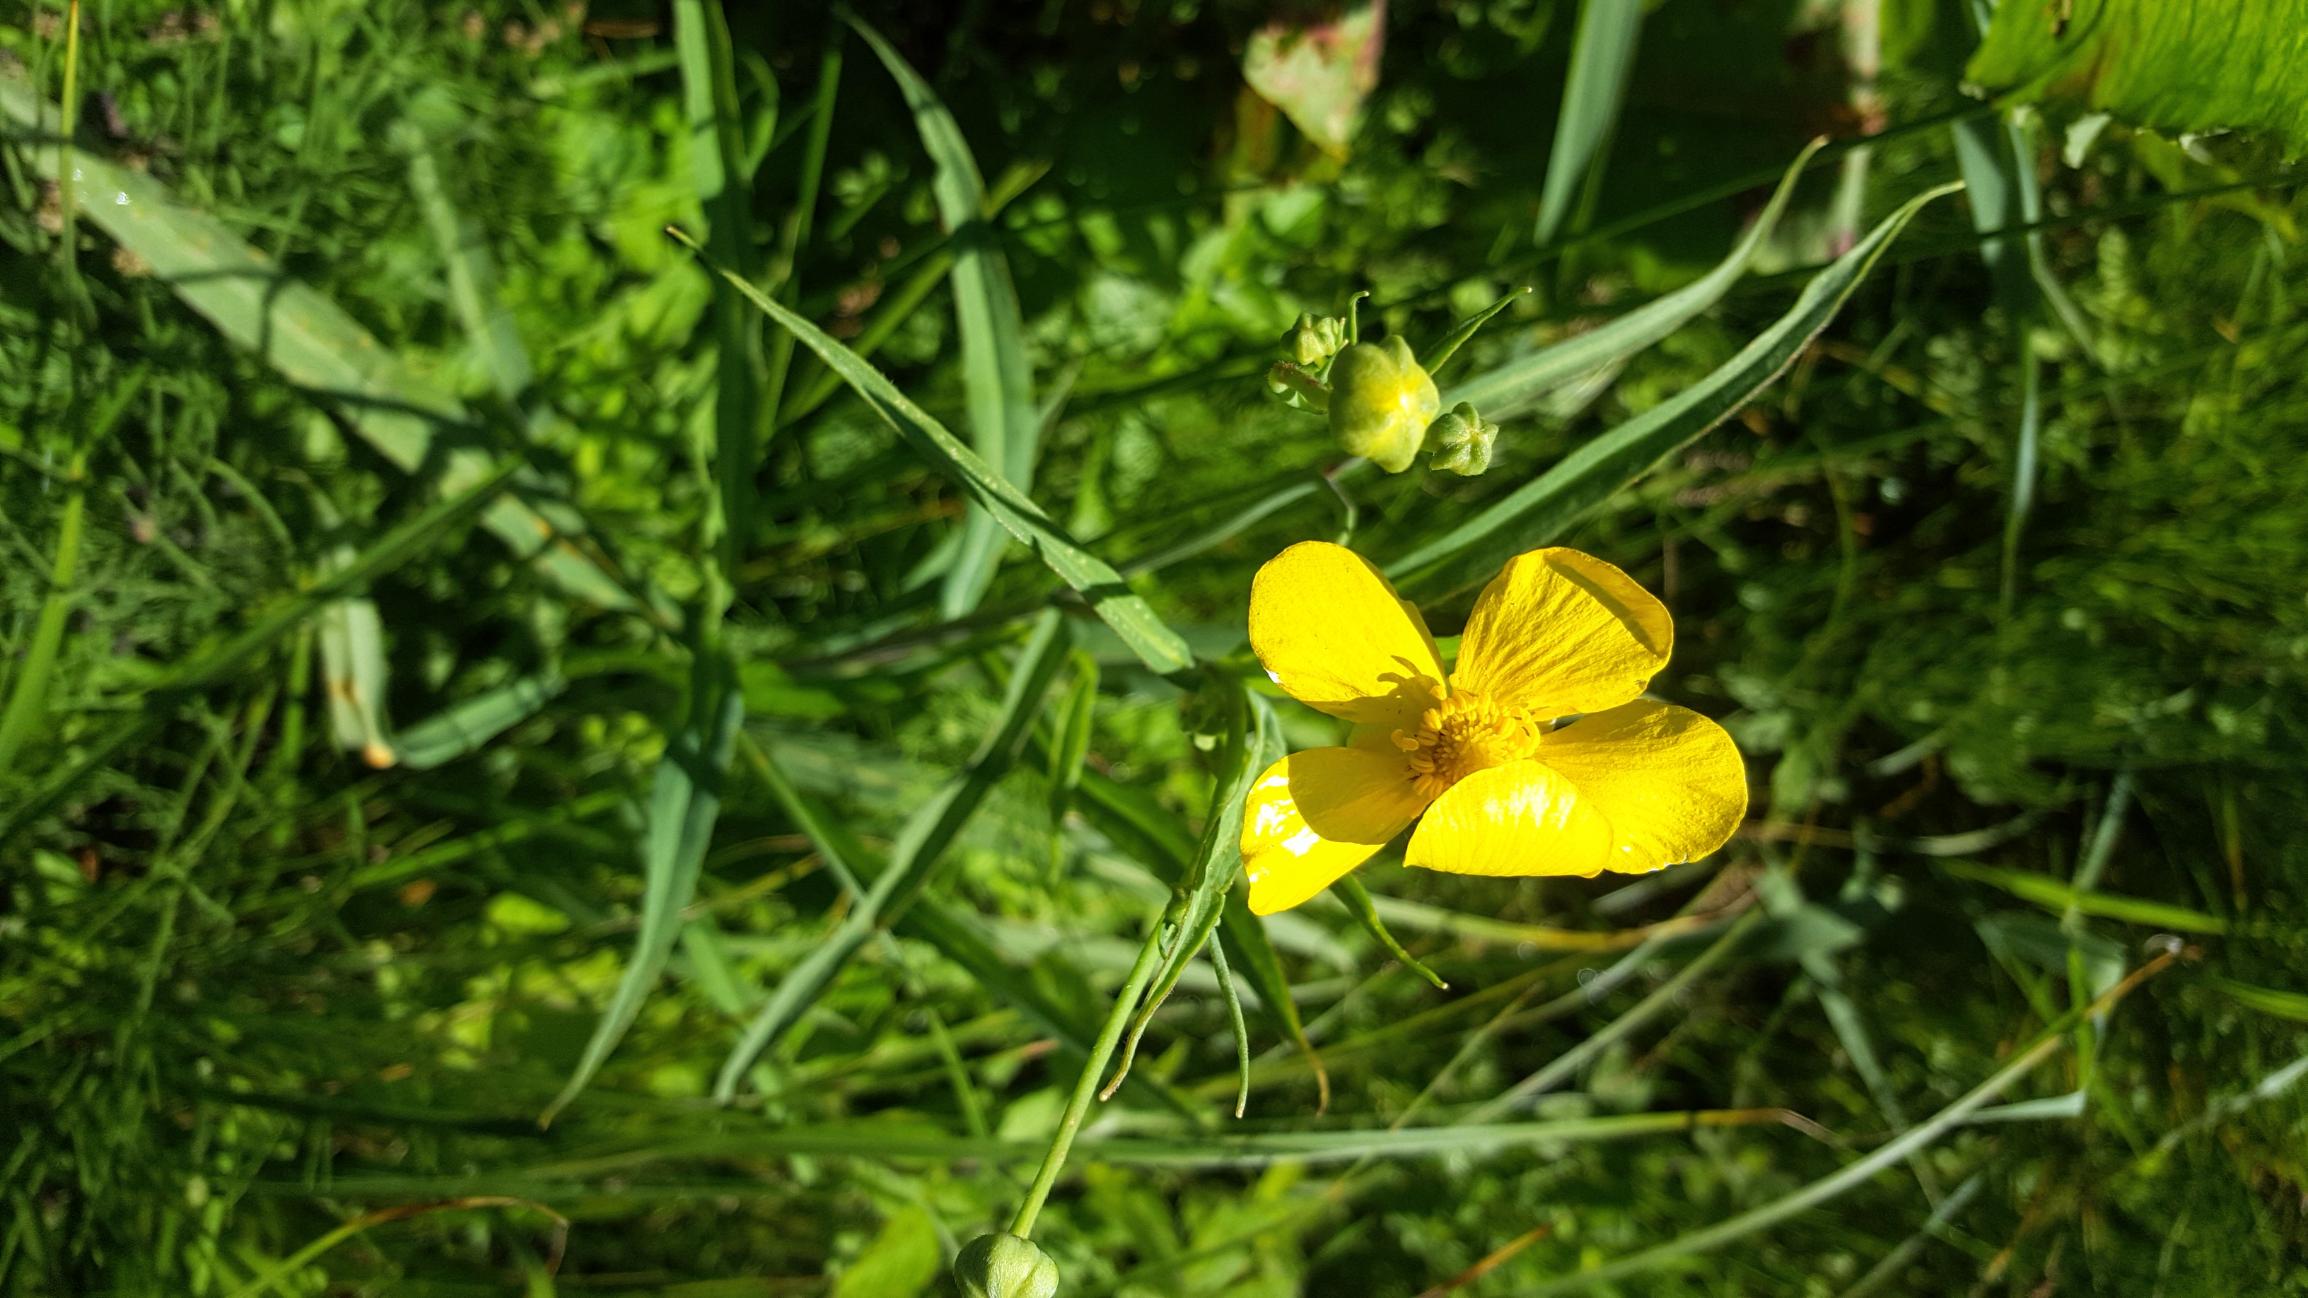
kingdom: Plantae
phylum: Tracheophyta
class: Magnoliopsida
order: Ranunculales
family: Ranunculaceae
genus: Ranunculus
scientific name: Ranunculus lingua
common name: Langbladet ranunkel
